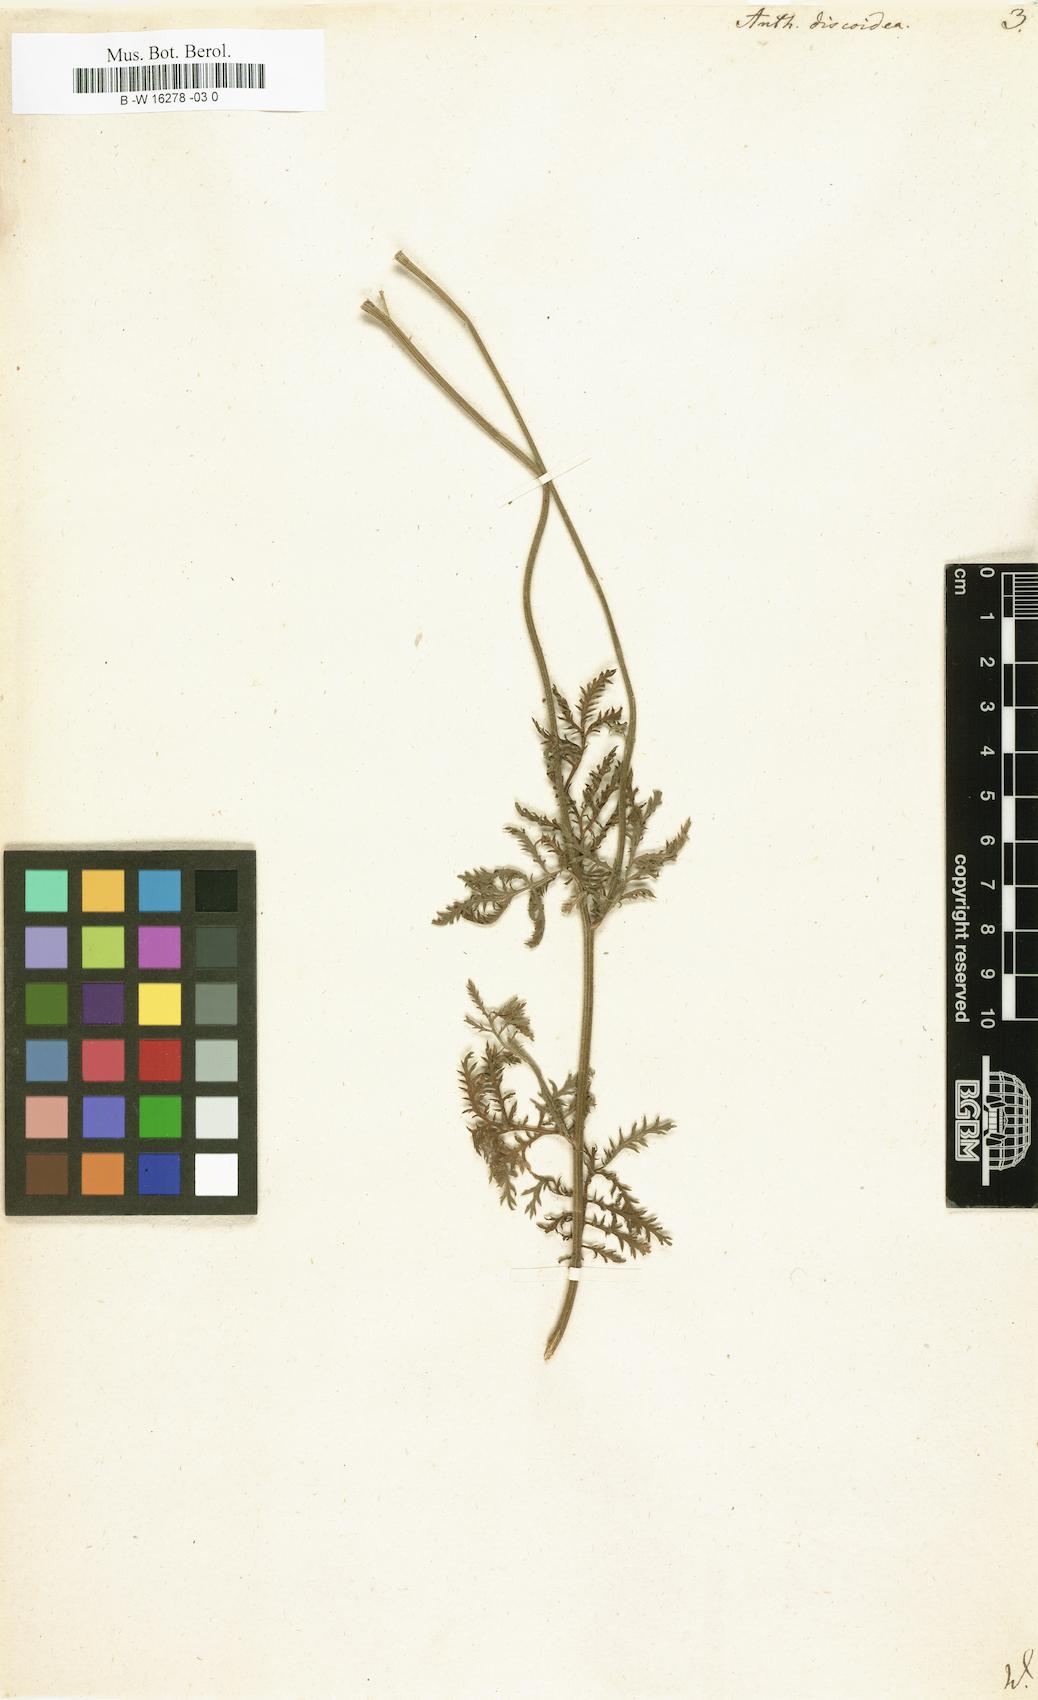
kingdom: Plantae
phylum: Tracheophyta
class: Magnoliopsida
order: Asterales
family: Asteraceae
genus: Cota
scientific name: Cota tinctoria
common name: Golden chamomile
